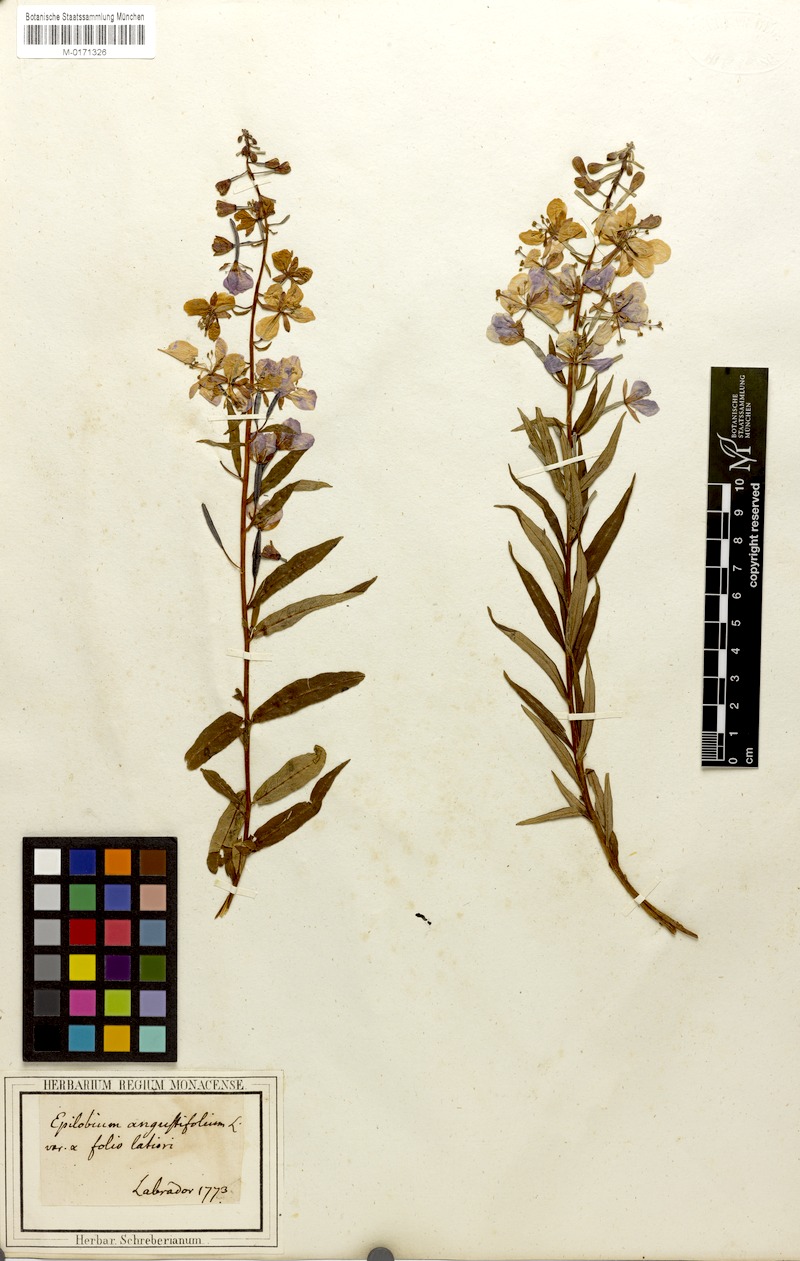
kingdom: Plantae
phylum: Tracheophyta
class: Magnoliopsida
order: Myrtales
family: Onagraceae
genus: Chamaenerion
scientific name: Chamaenerion angustifolium
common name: Fireweed
